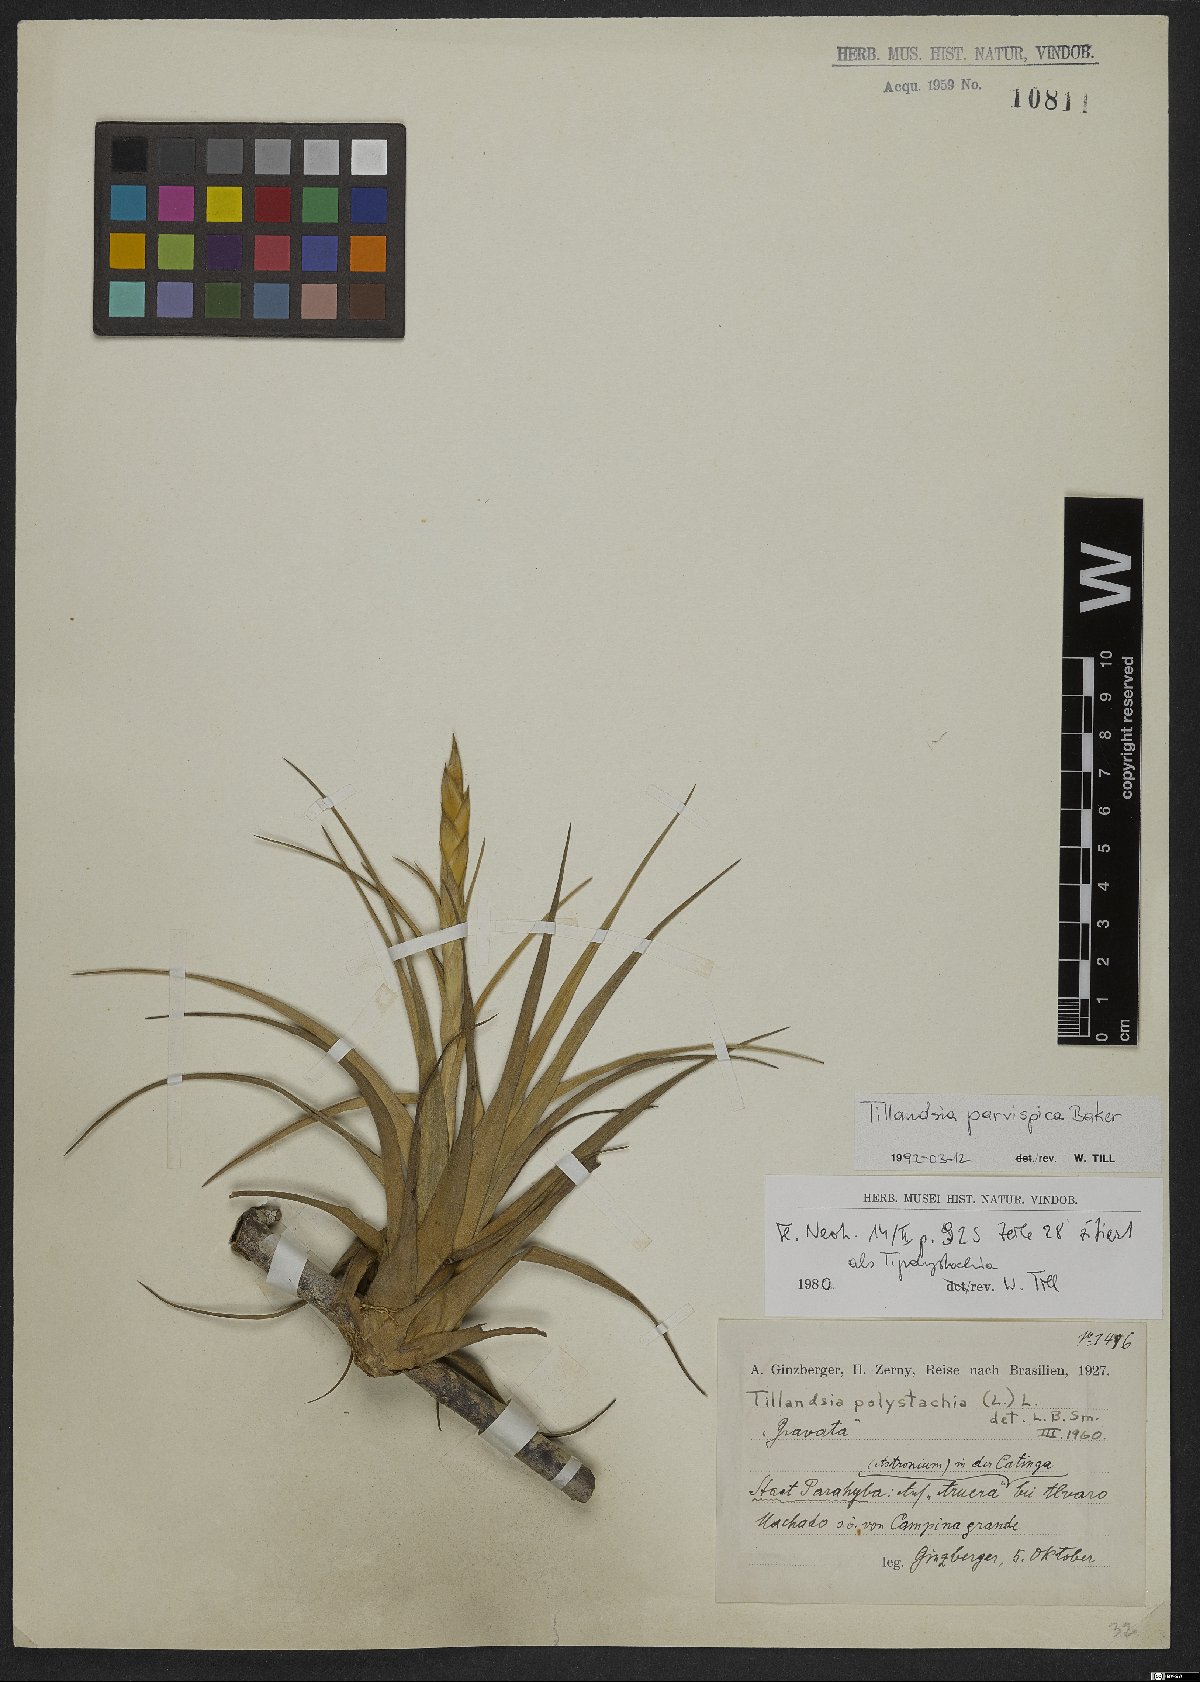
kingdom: Plantae
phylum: Tracheophyta
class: Liliopsida
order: Poales
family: Bromeliaceae
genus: Tillandsia
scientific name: Tillandsia parvispica
